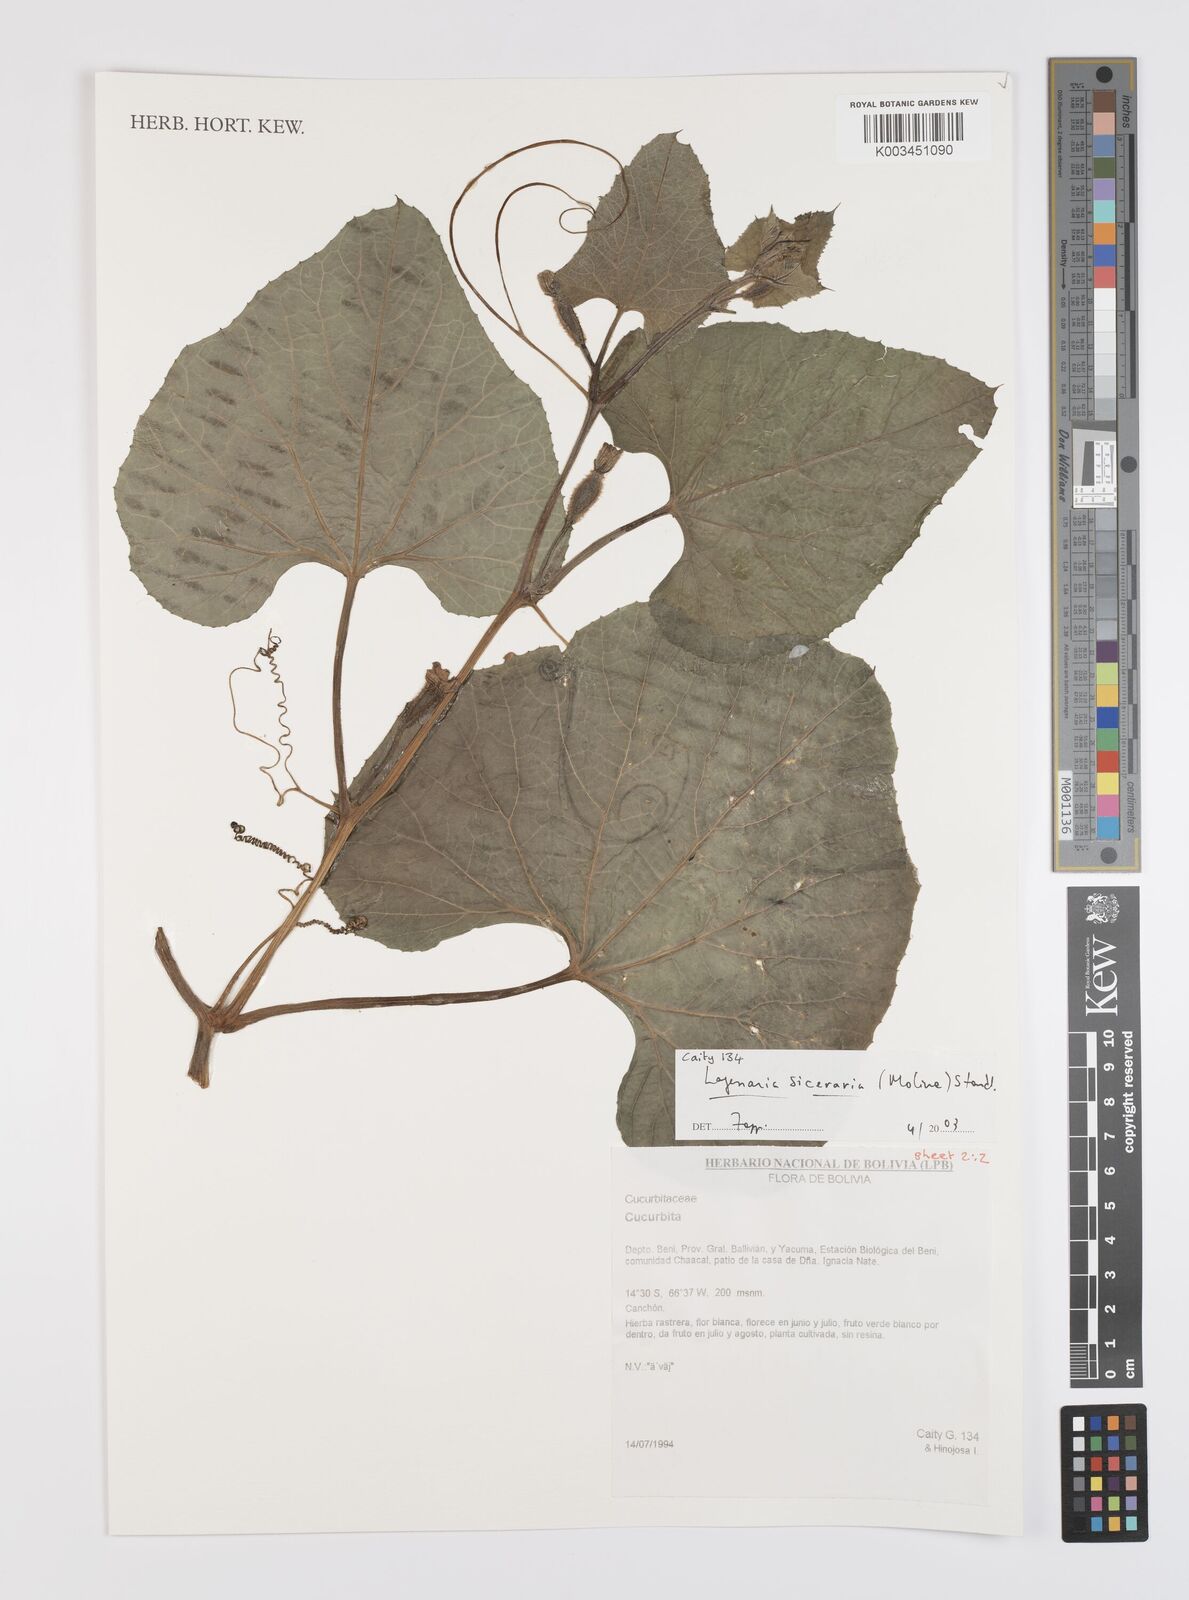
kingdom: Plantae
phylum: Tracheophyta
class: Magnoliopsida
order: Cucurbitales
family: Cucurbitaceae
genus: Lagenaria
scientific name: Lagenaria siceraria
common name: Bottle gourd
